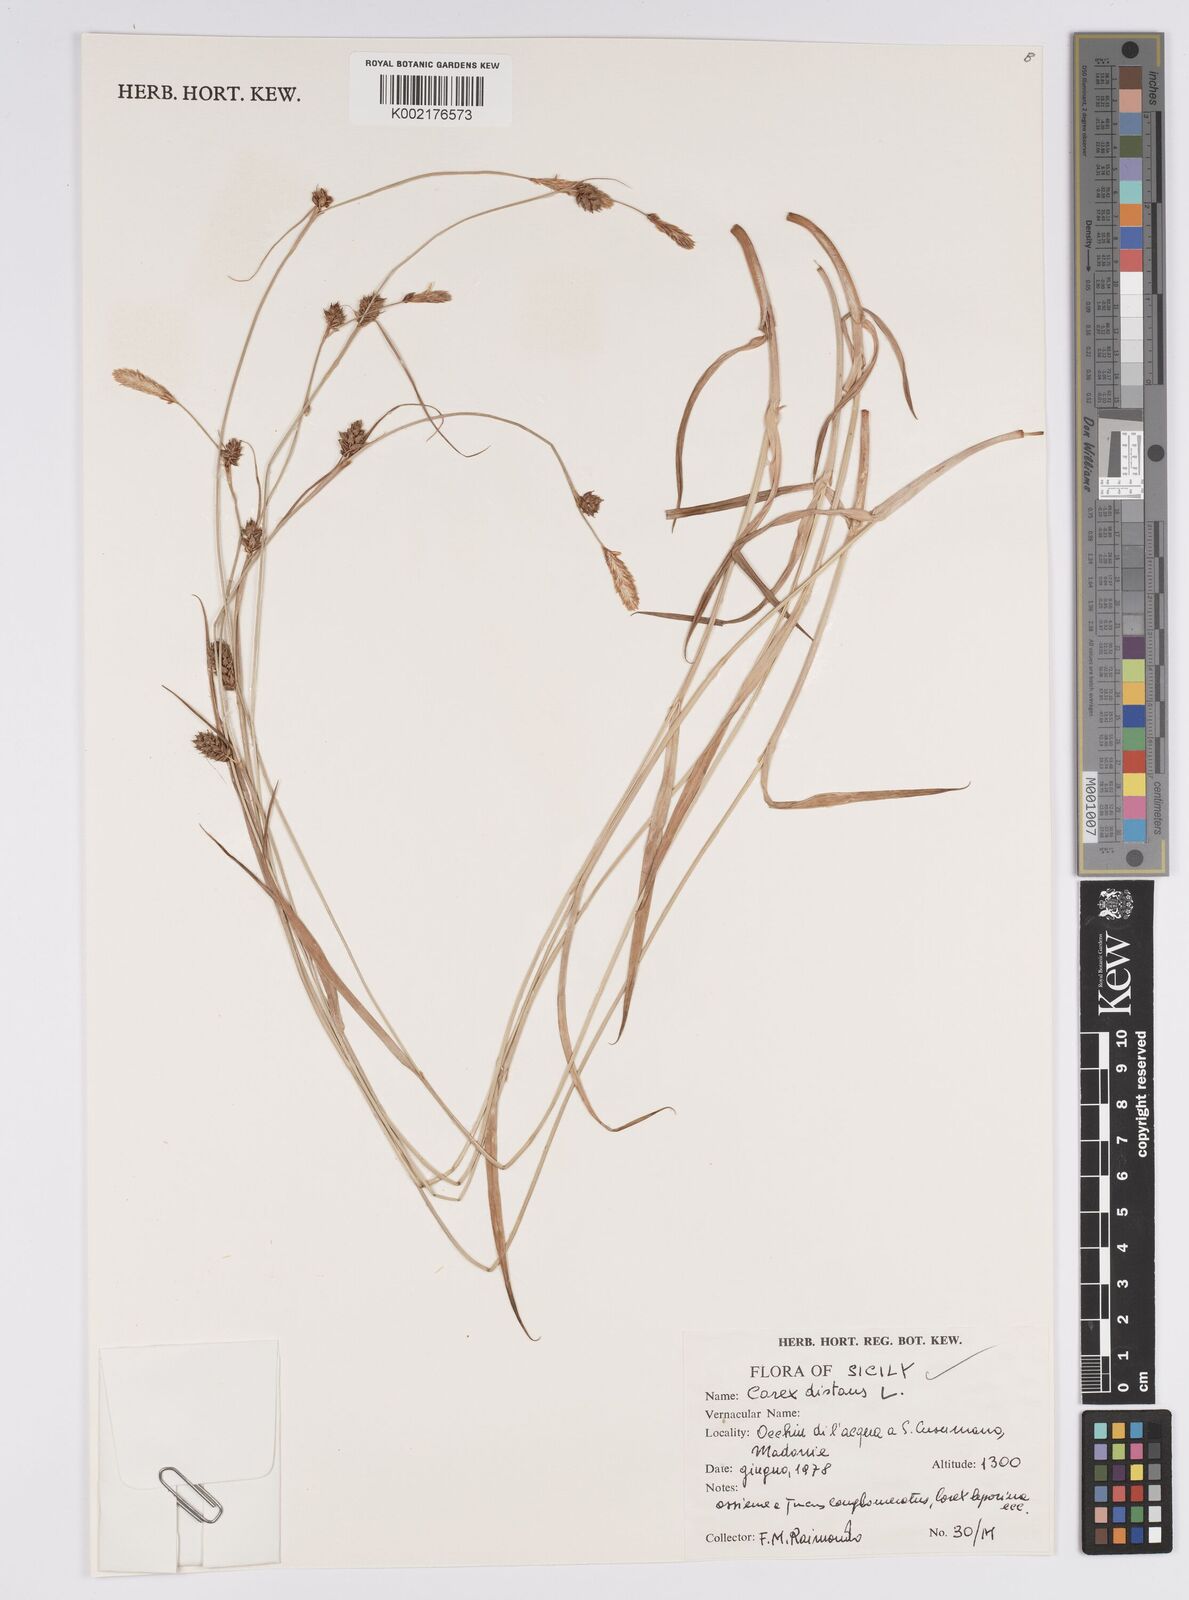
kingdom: Plantae
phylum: Tracheophyta
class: Liliopsida
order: Poales
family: Cyperaceae
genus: Carex
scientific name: Carex distans
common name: Distant sedge
